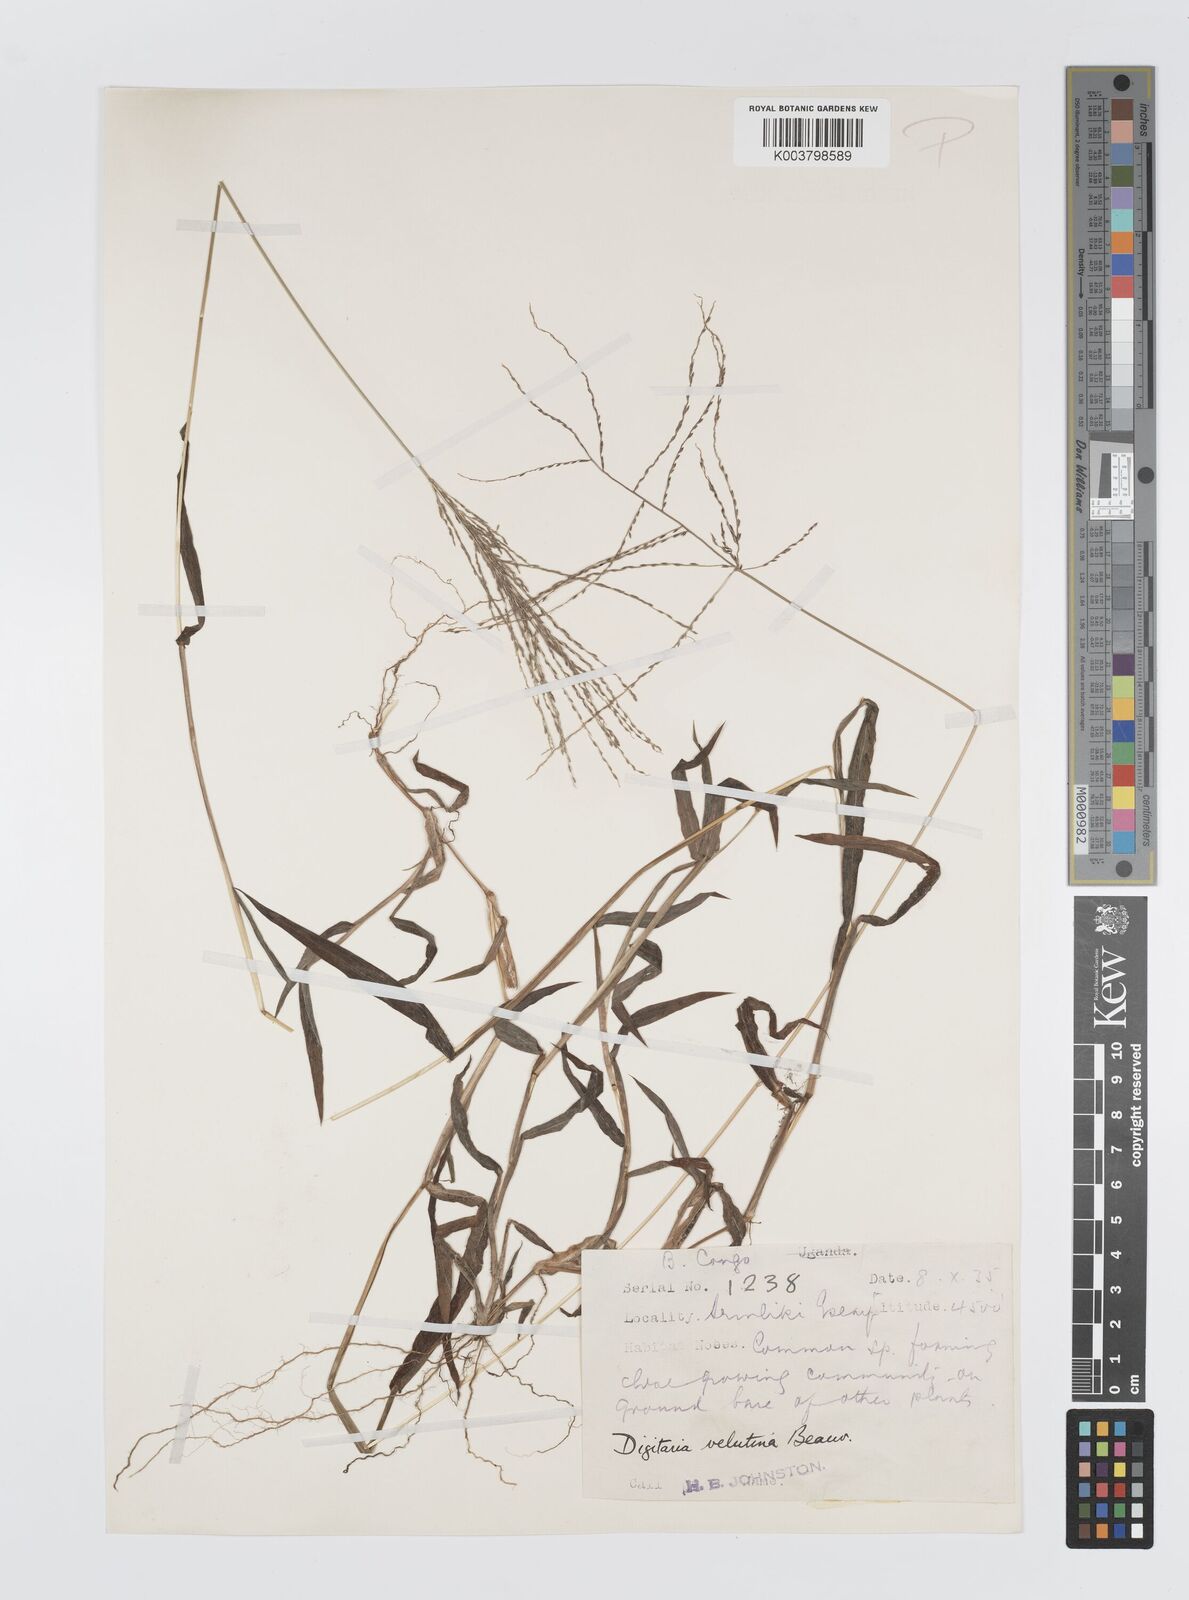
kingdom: Plantae
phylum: Tracheophyta
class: Liliopsida
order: Poales
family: Poaceae
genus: Digitaria
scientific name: Digitaria pearsonii
